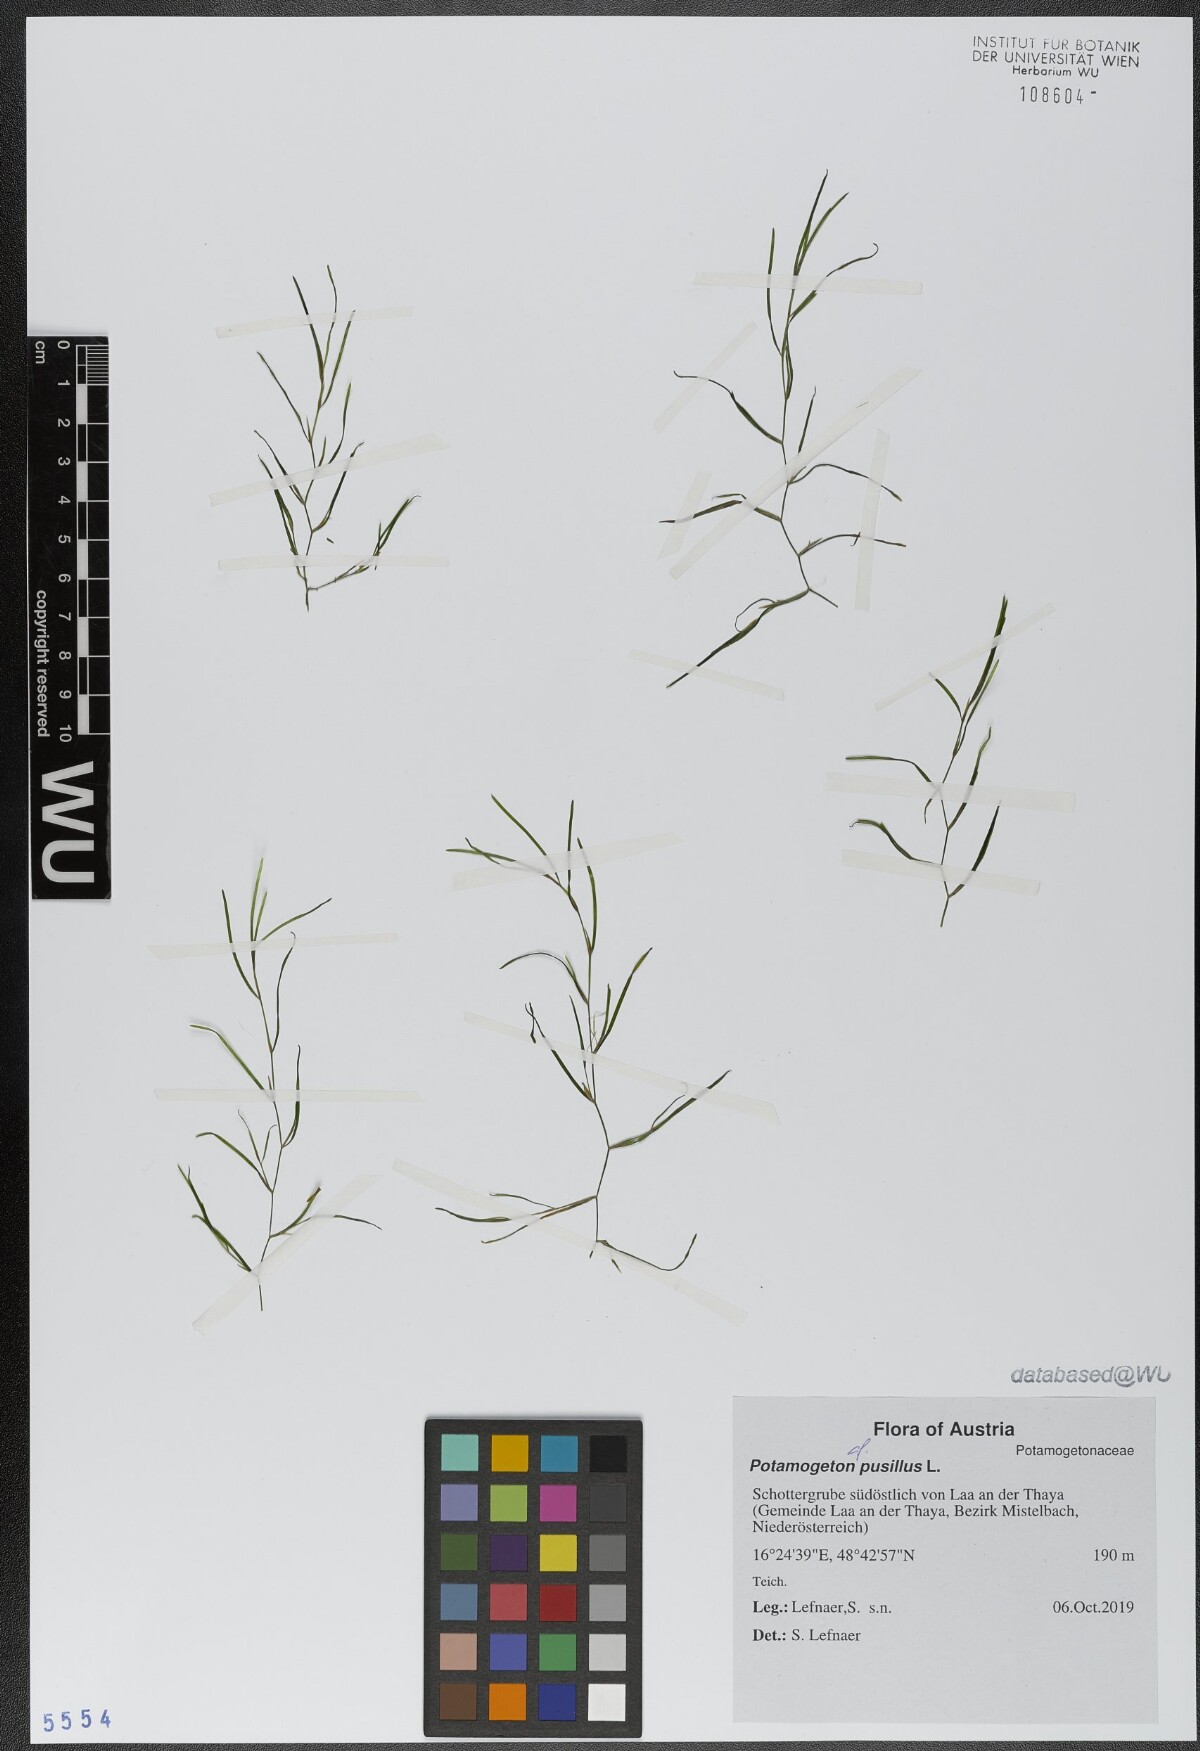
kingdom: Plantae
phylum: Tracheophyta
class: Liliopsida
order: Alismatales
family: Potamogetonaceae
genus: Potamogeton
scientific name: Potamogeton pusillus
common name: Lesser pondweed
